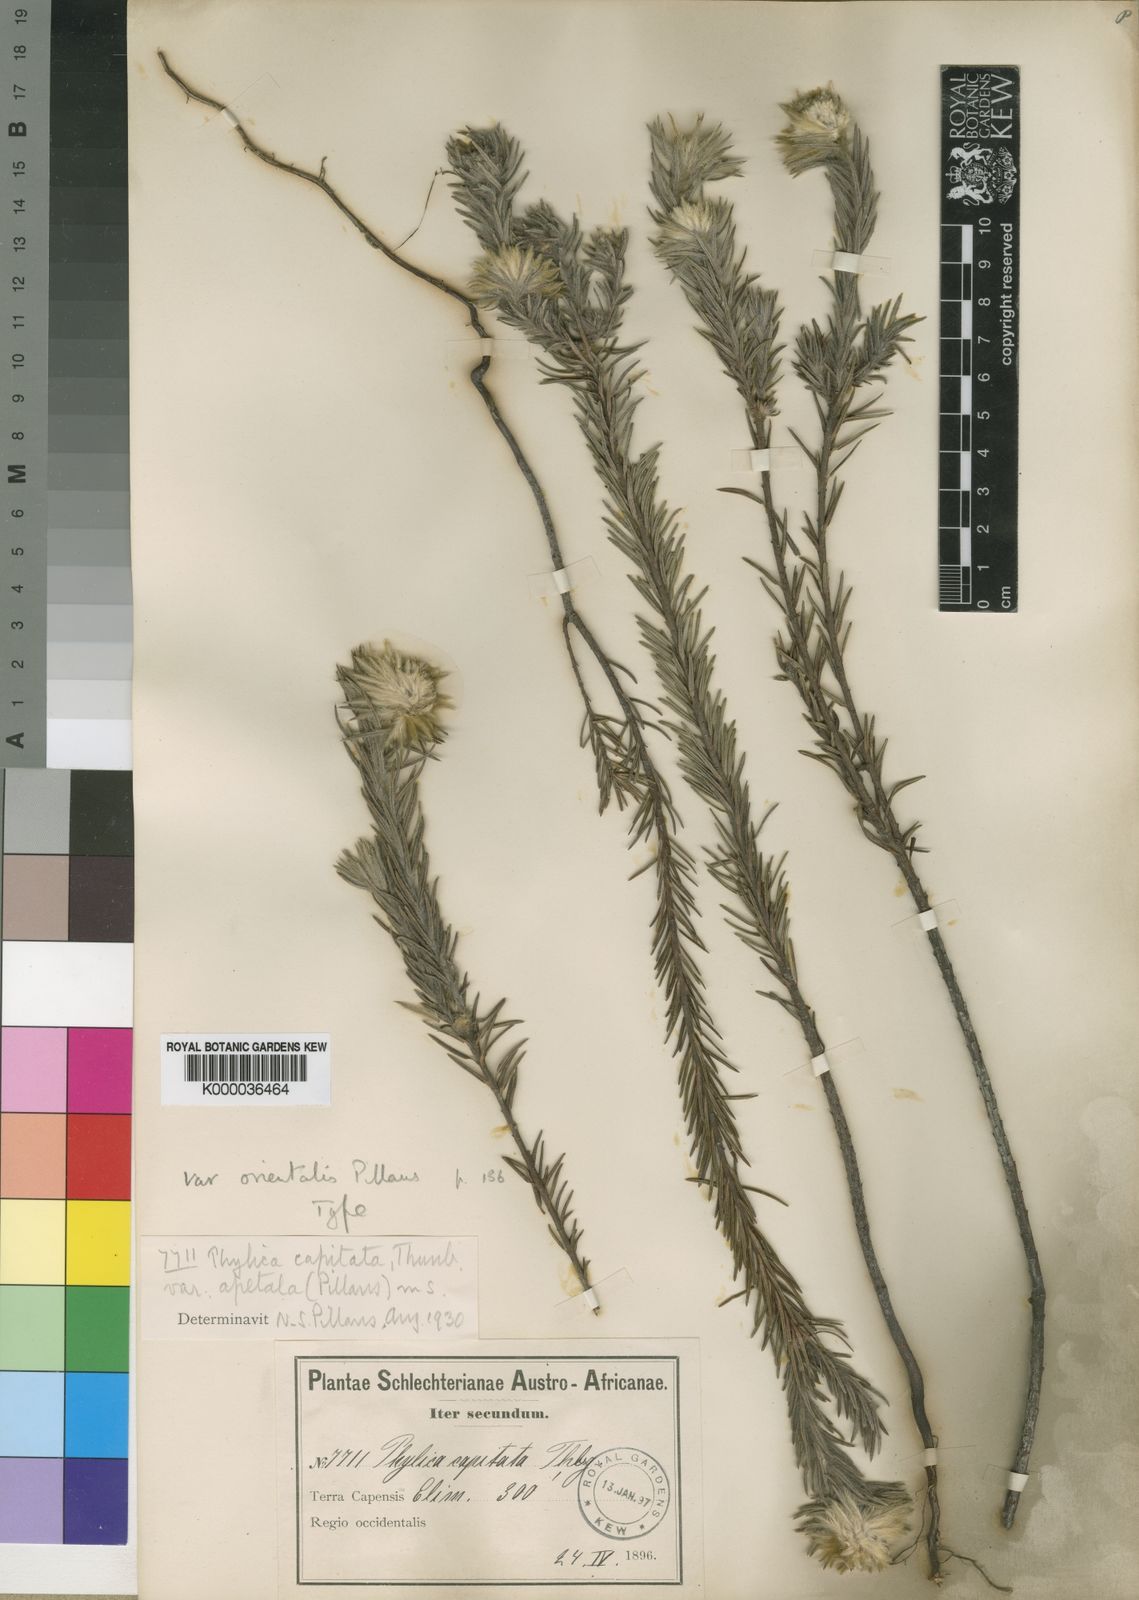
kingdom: Plantae
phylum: Tracheophyta
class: Magnoliopsida
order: Rosales
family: Rhamnaceae
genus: Phylica
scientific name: Phylica pubescens
